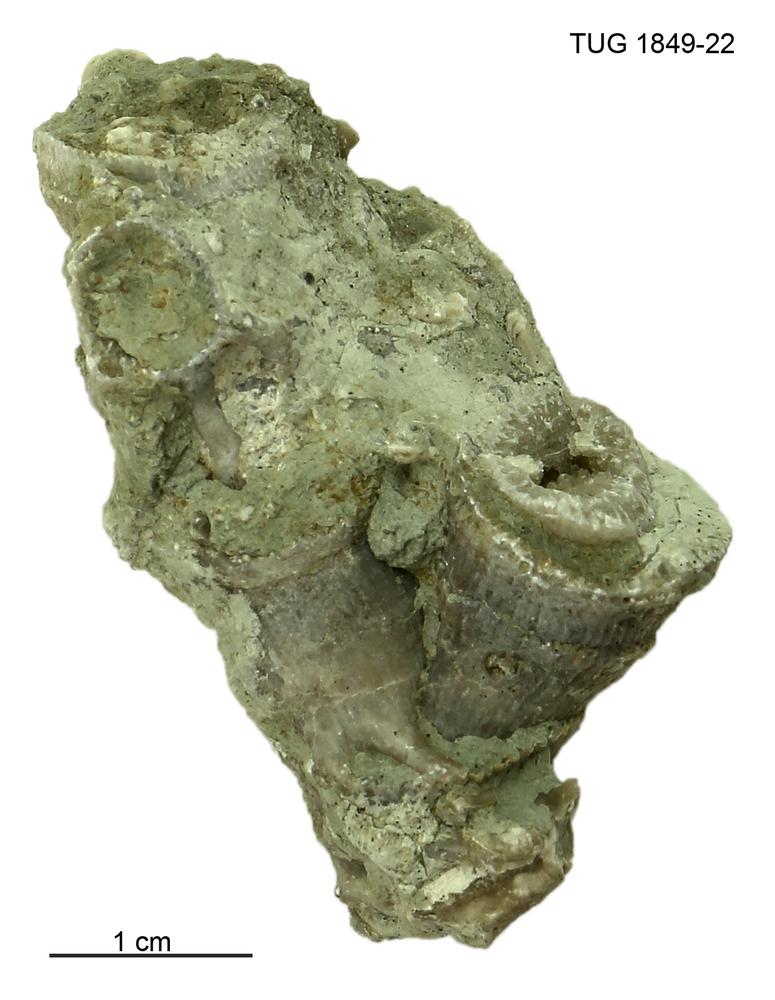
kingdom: Animalia
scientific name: Animalia
